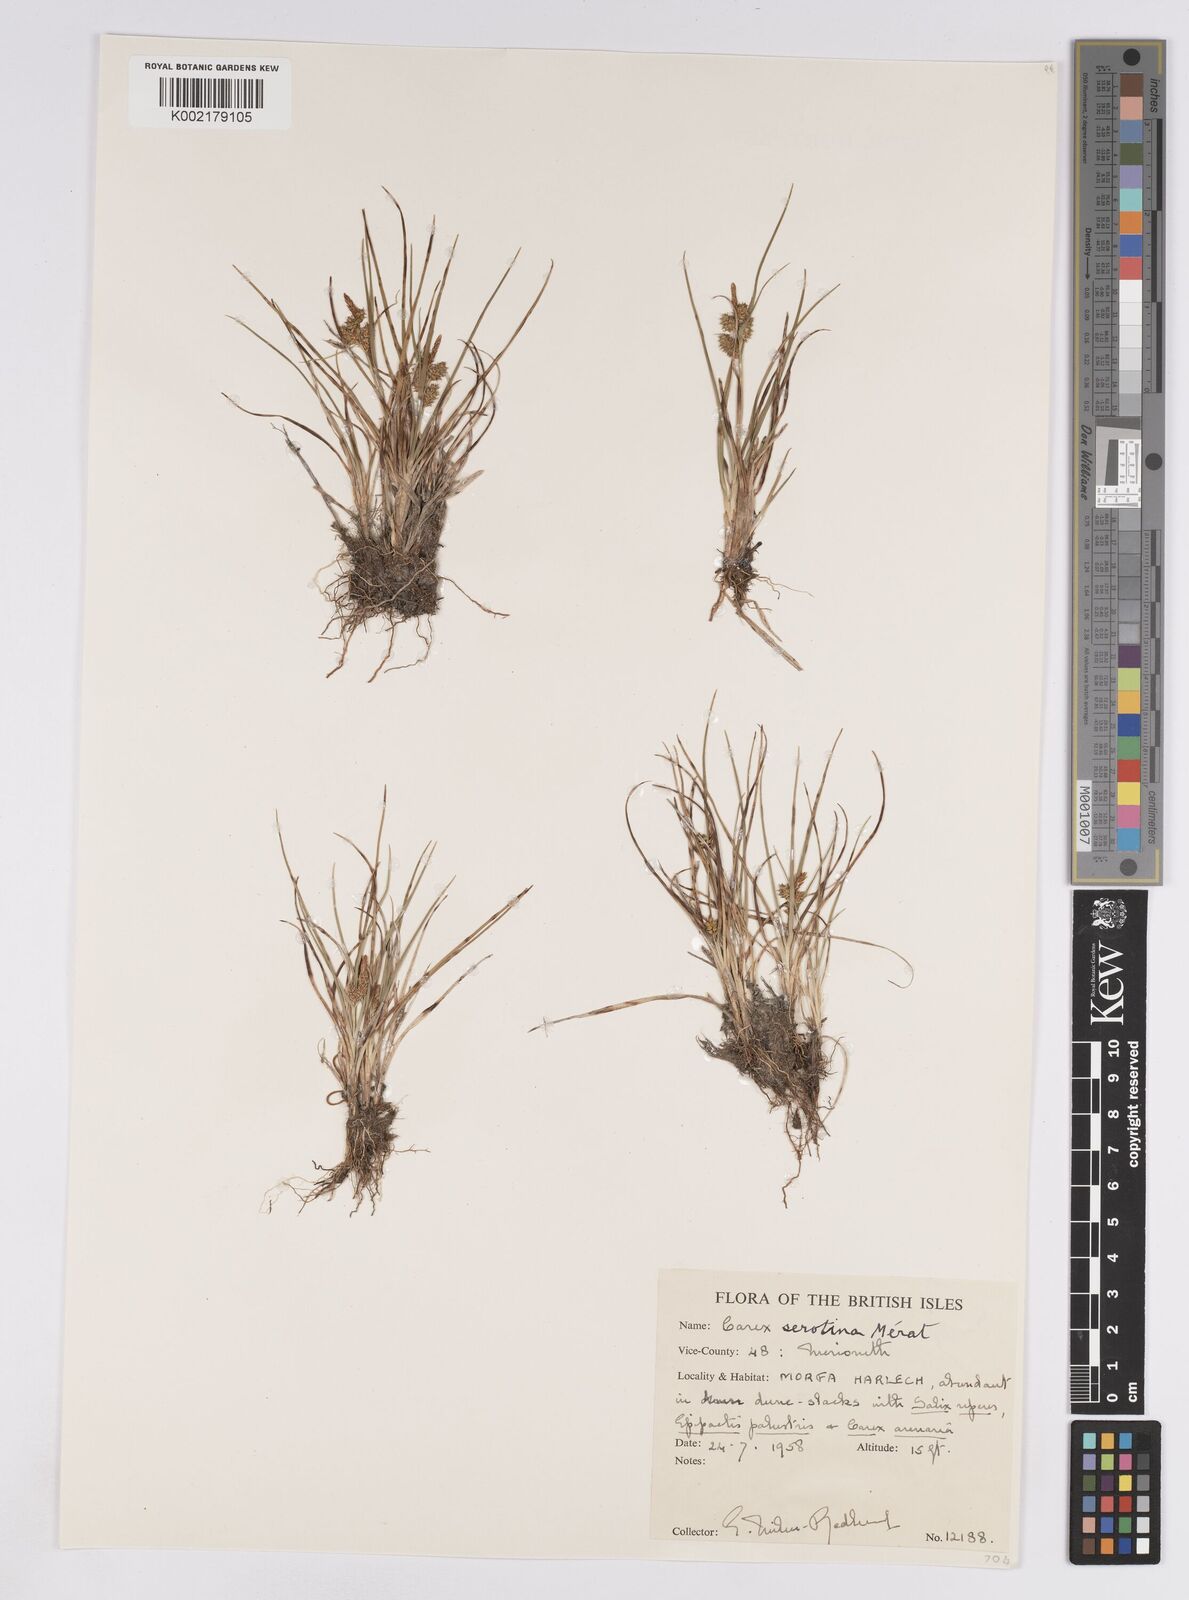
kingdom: Plantae
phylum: Tracheophyta
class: Liliopsida
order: Poales
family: Cyperaceae
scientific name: Cyperaceae
